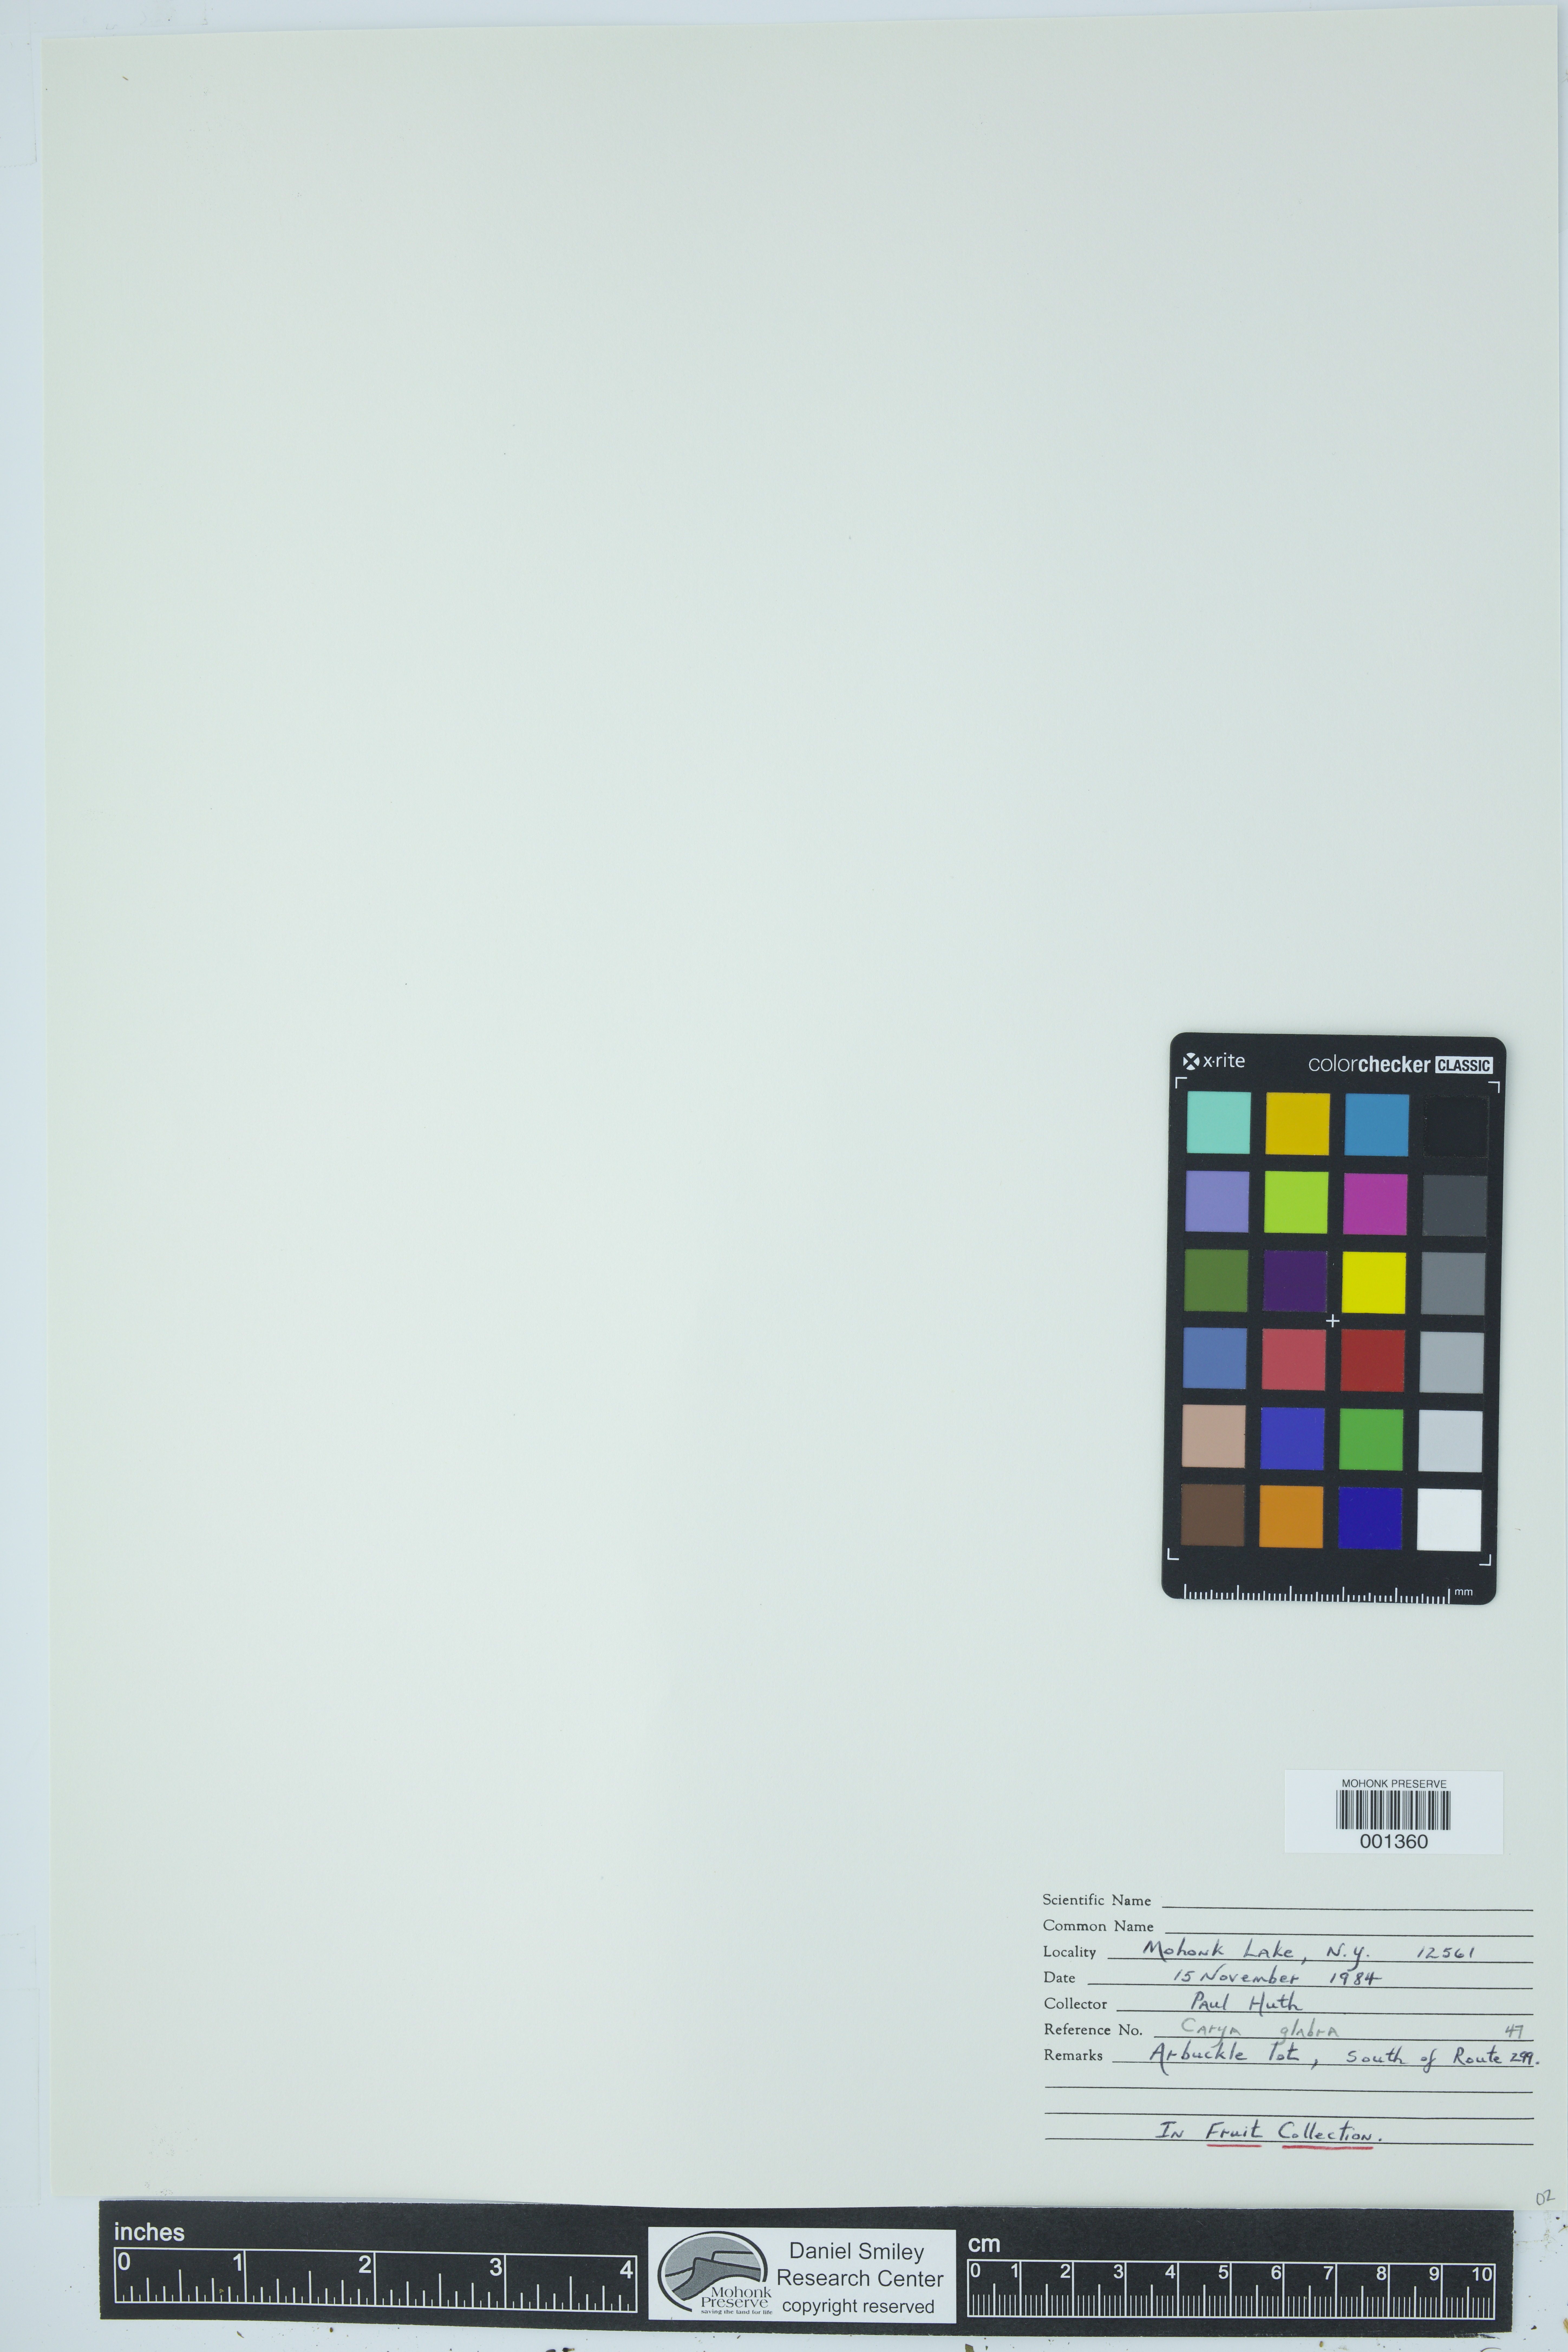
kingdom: Plantae
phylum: Tracheophyta
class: Magnoliopsida
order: Fagales
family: Juglandaceae
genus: Carya
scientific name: Carya glabra
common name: Pignut hickory
